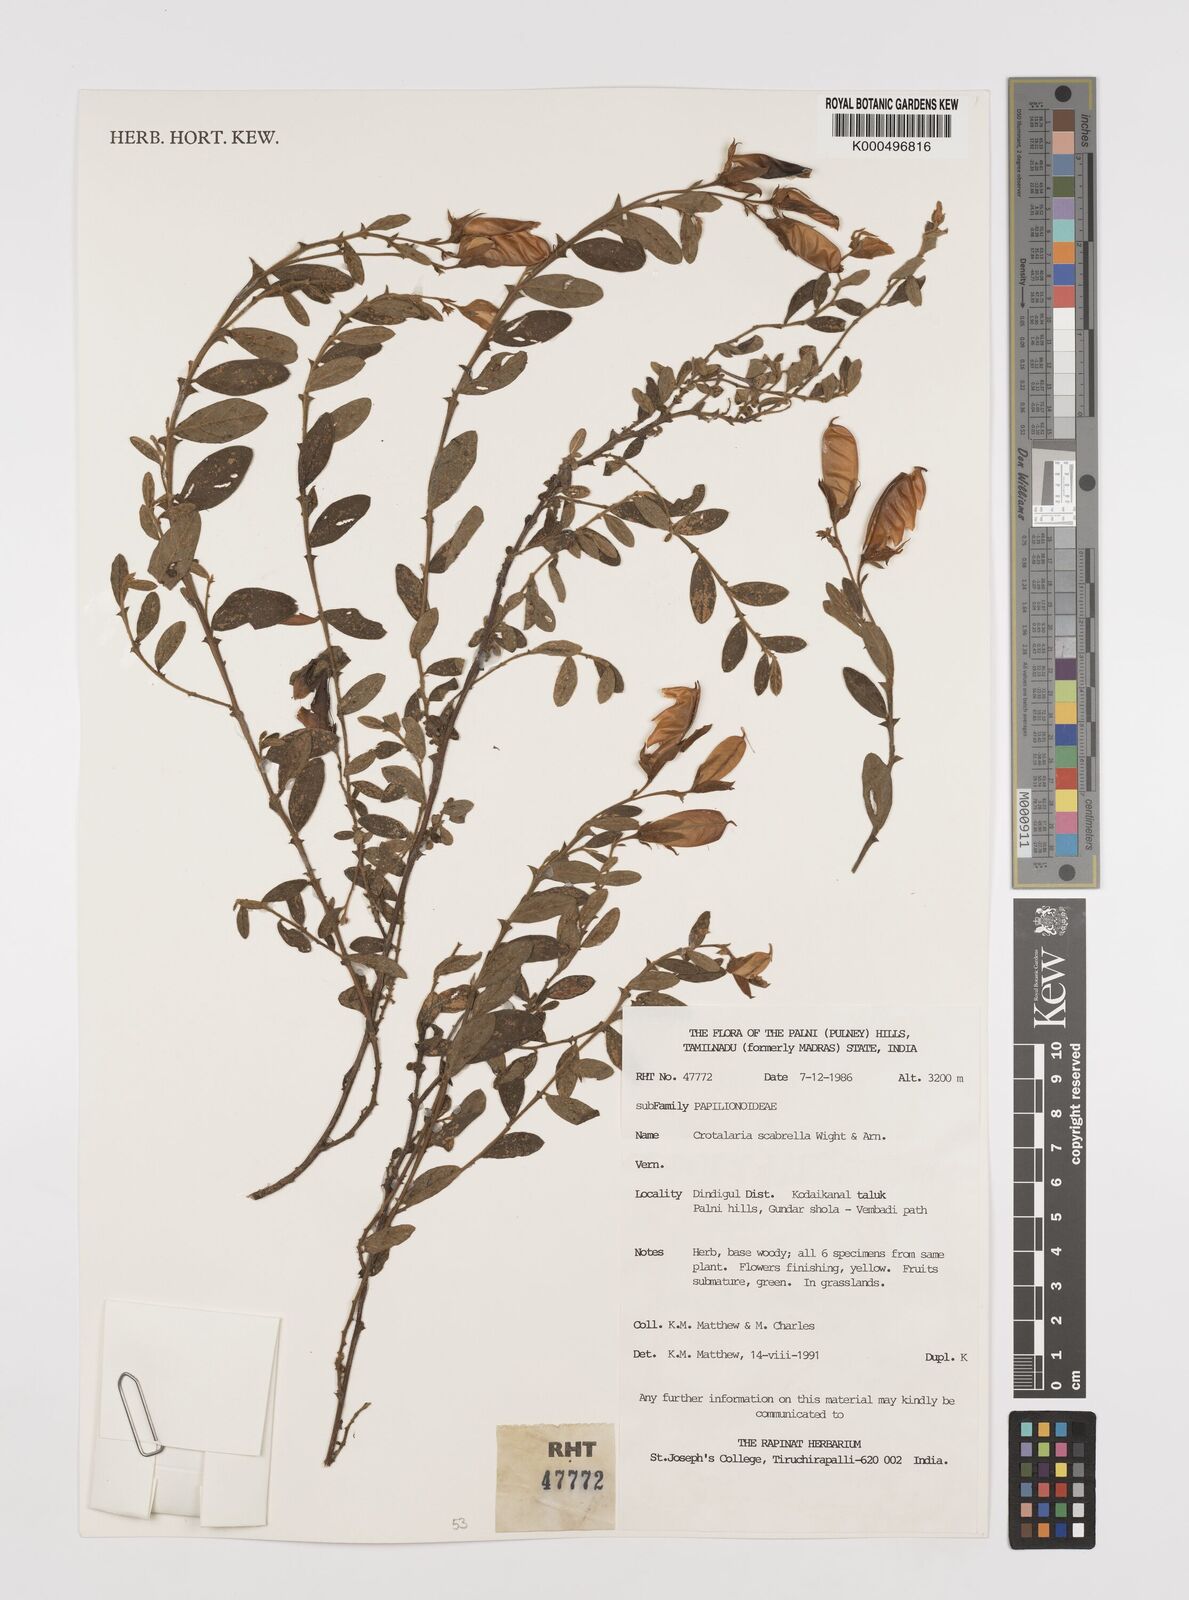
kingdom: Plantae
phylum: Tracheophyta
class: Magnoliopsida
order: Fabales
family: Fabaceae
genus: Crotalaria
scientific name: Crotalaria scabrella
